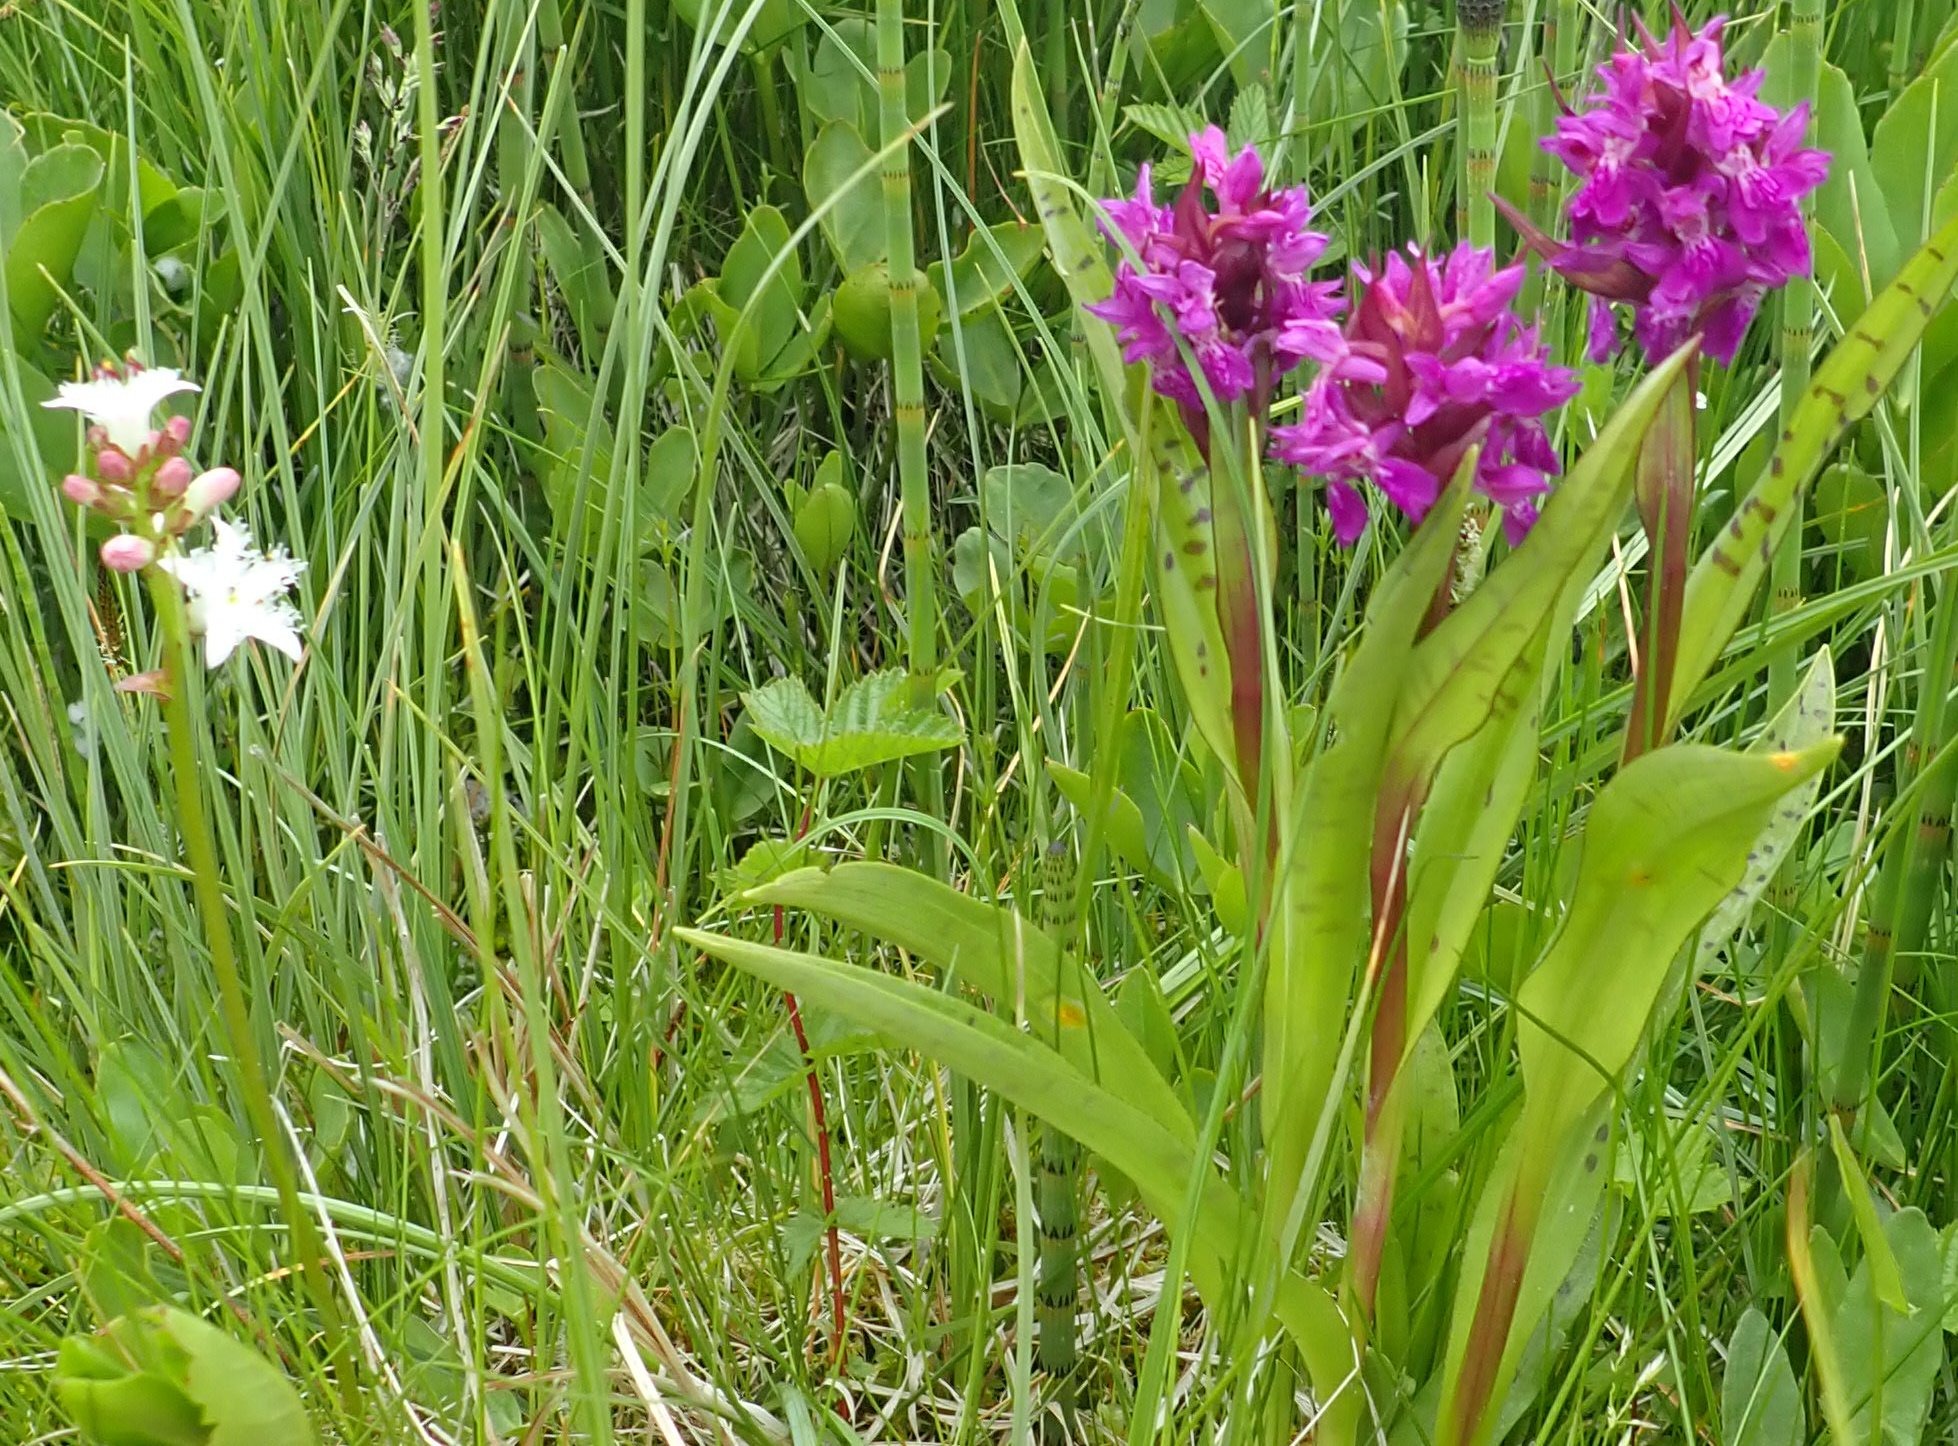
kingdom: Plantae
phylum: Tracheophyta
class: Liliopsida
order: Asparagales
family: Orchidaceae
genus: Dactylorhiza
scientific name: Dactylorhiza majalis
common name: Maj-gøgeurt
